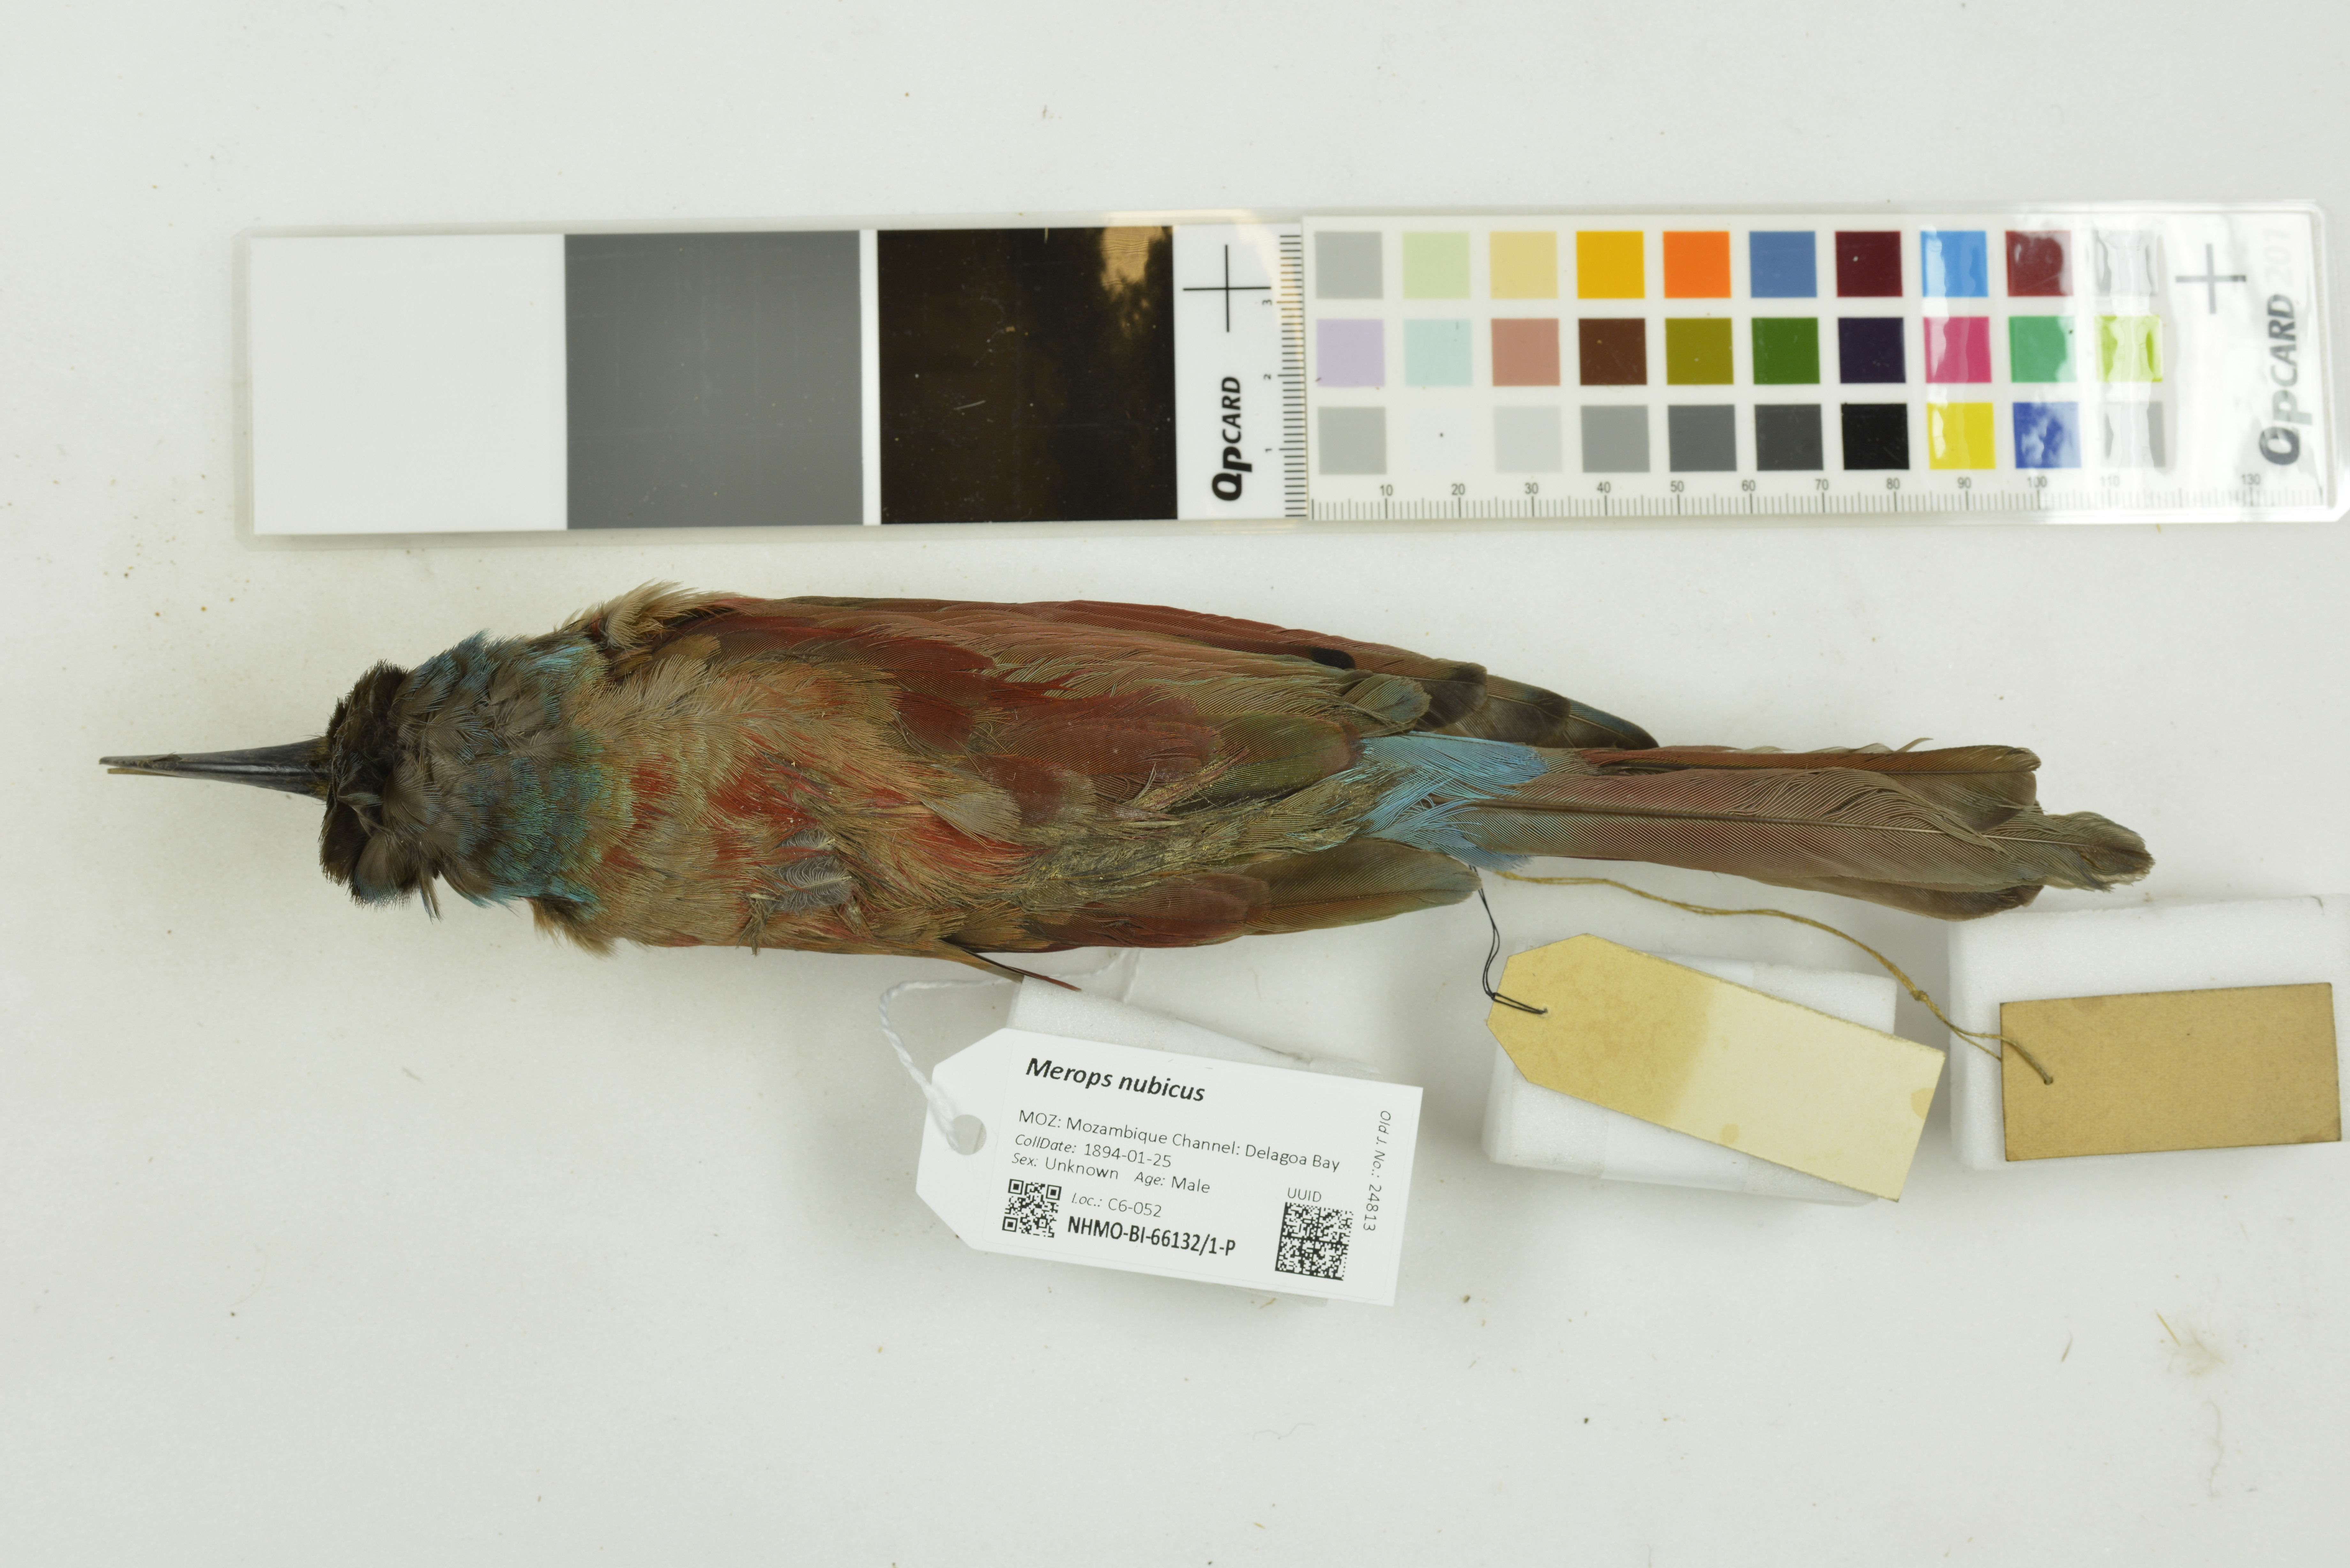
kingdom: Animalia
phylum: Chordata
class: Aves
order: Coraciiformes
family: Meropidae
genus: Merops
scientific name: Merops nubicus
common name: Northern carmine bee-eater
